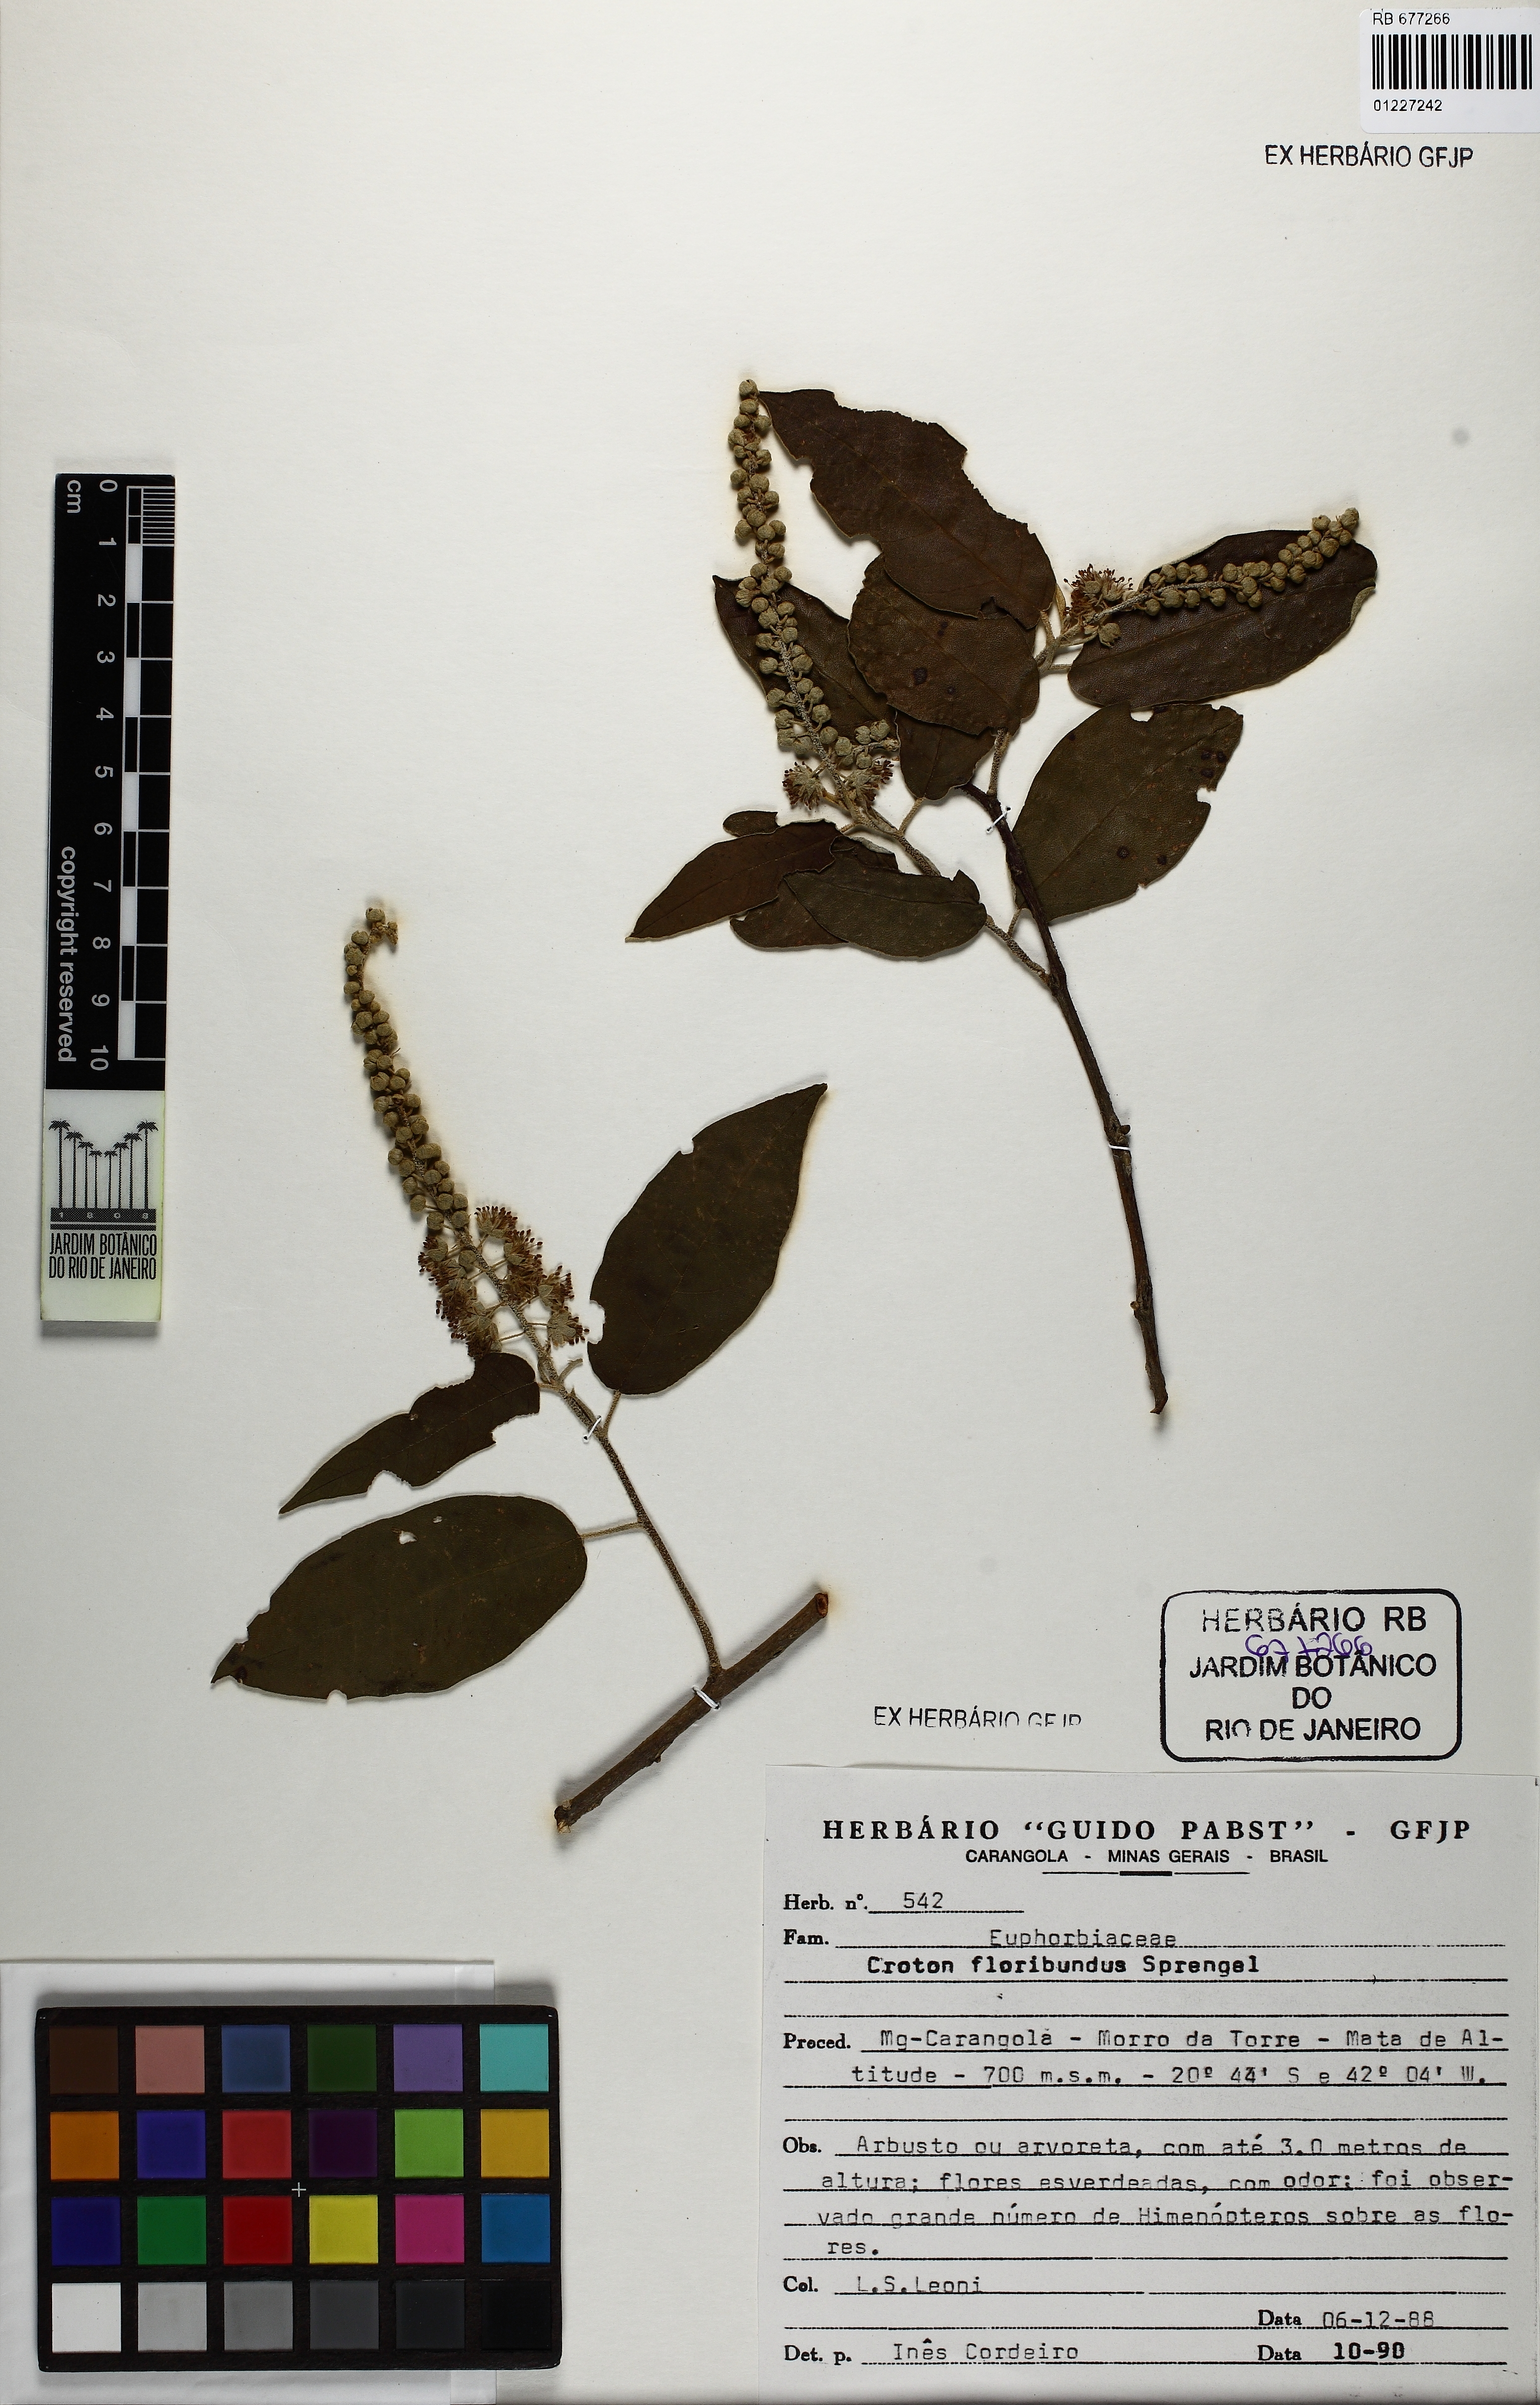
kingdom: Plantae
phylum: Tracheophyta
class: Magnoliopsida
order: Malpighiales
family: Euphorbiaceae
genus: Croton
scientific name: Croton floribundus
